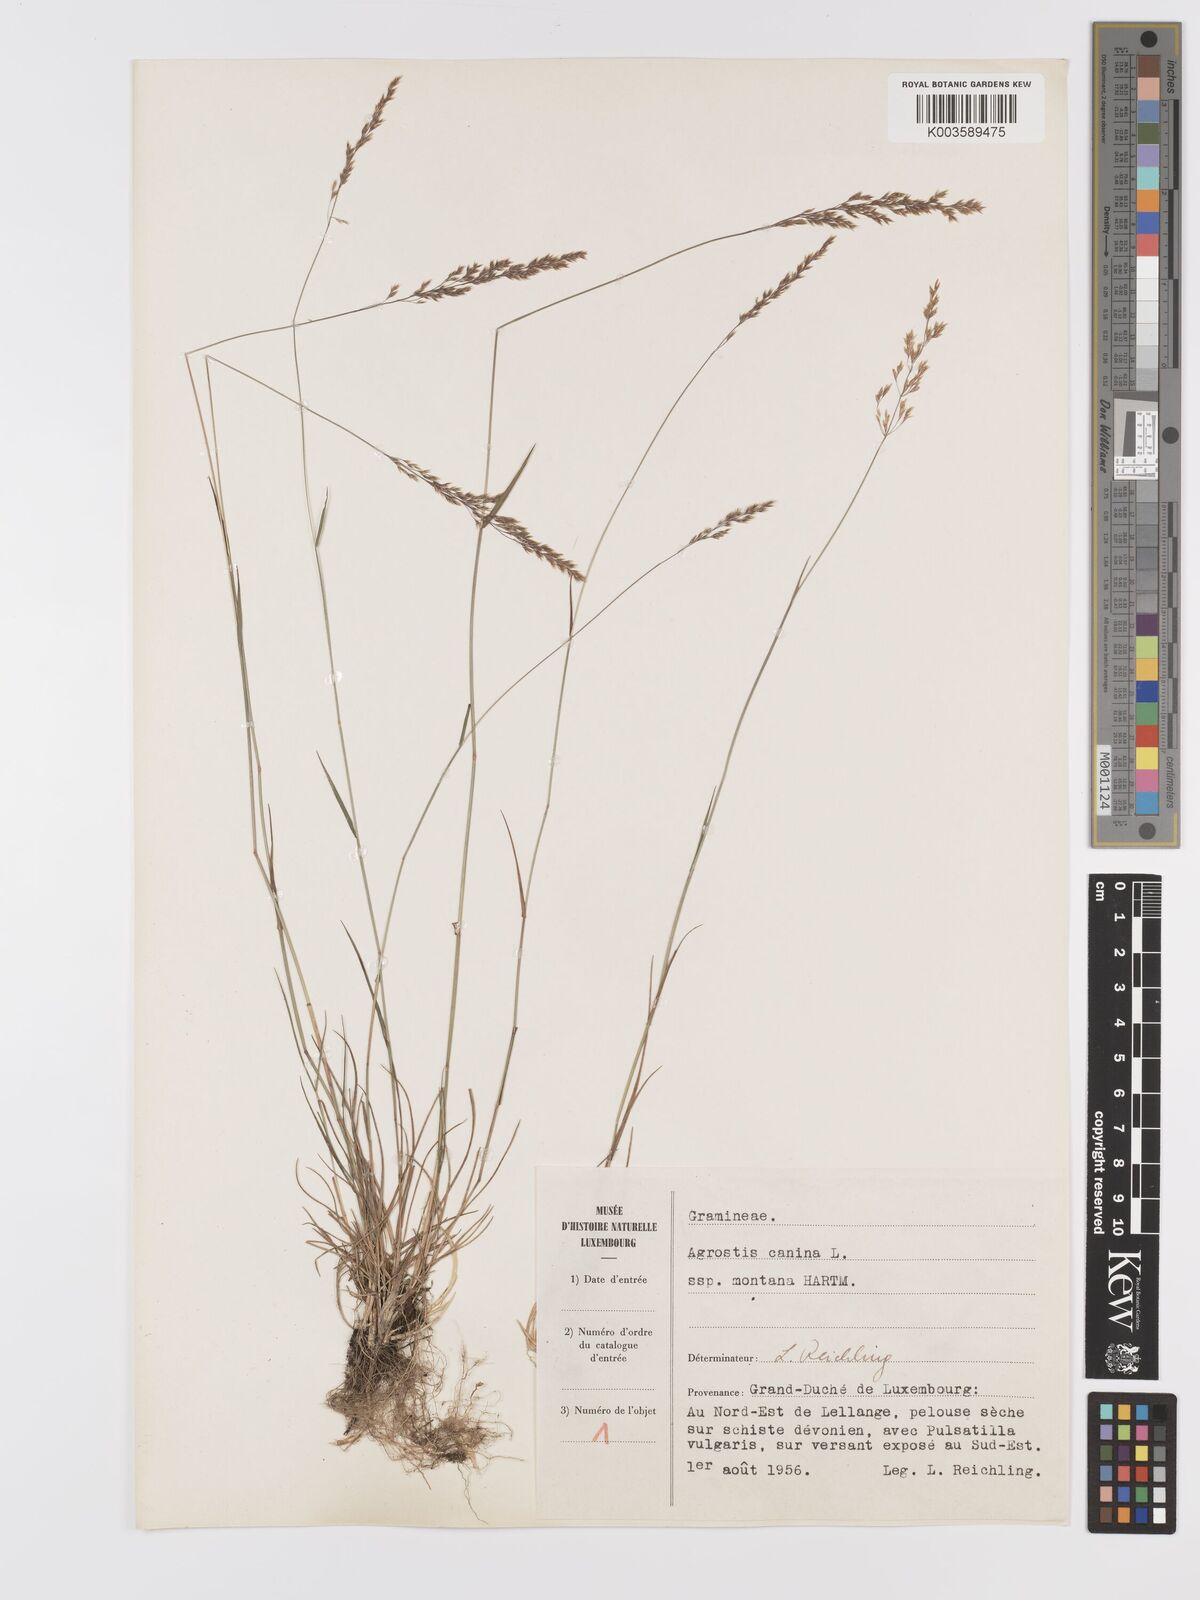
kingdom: Plantae
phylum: Tracheophyta
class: Liliopsida
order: Poales
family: Poaceae
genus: Agrostis
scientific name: Agrostis canina
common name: Velvet bent
